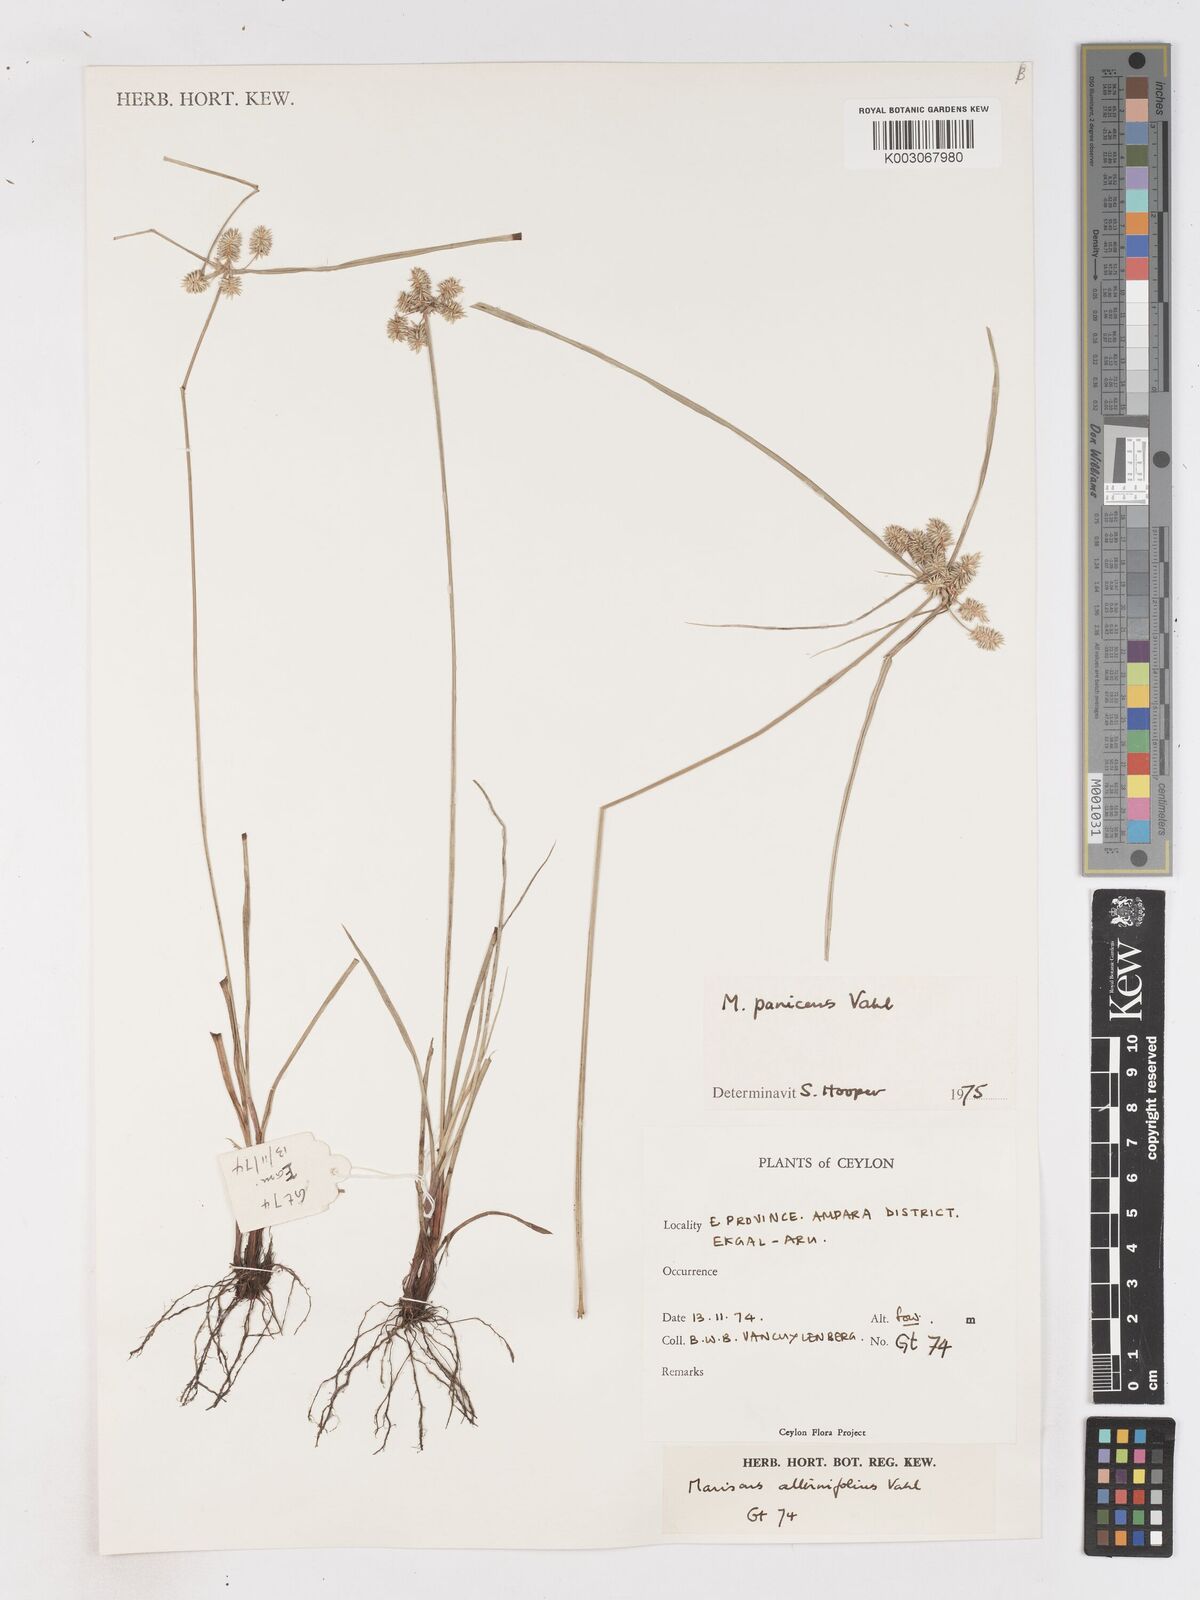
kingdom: Plantae
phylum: Tracheophyta
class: Liliopsida
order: Poales
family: Cyperaceae
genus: Cyperus
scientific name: Cyperus paniceus
